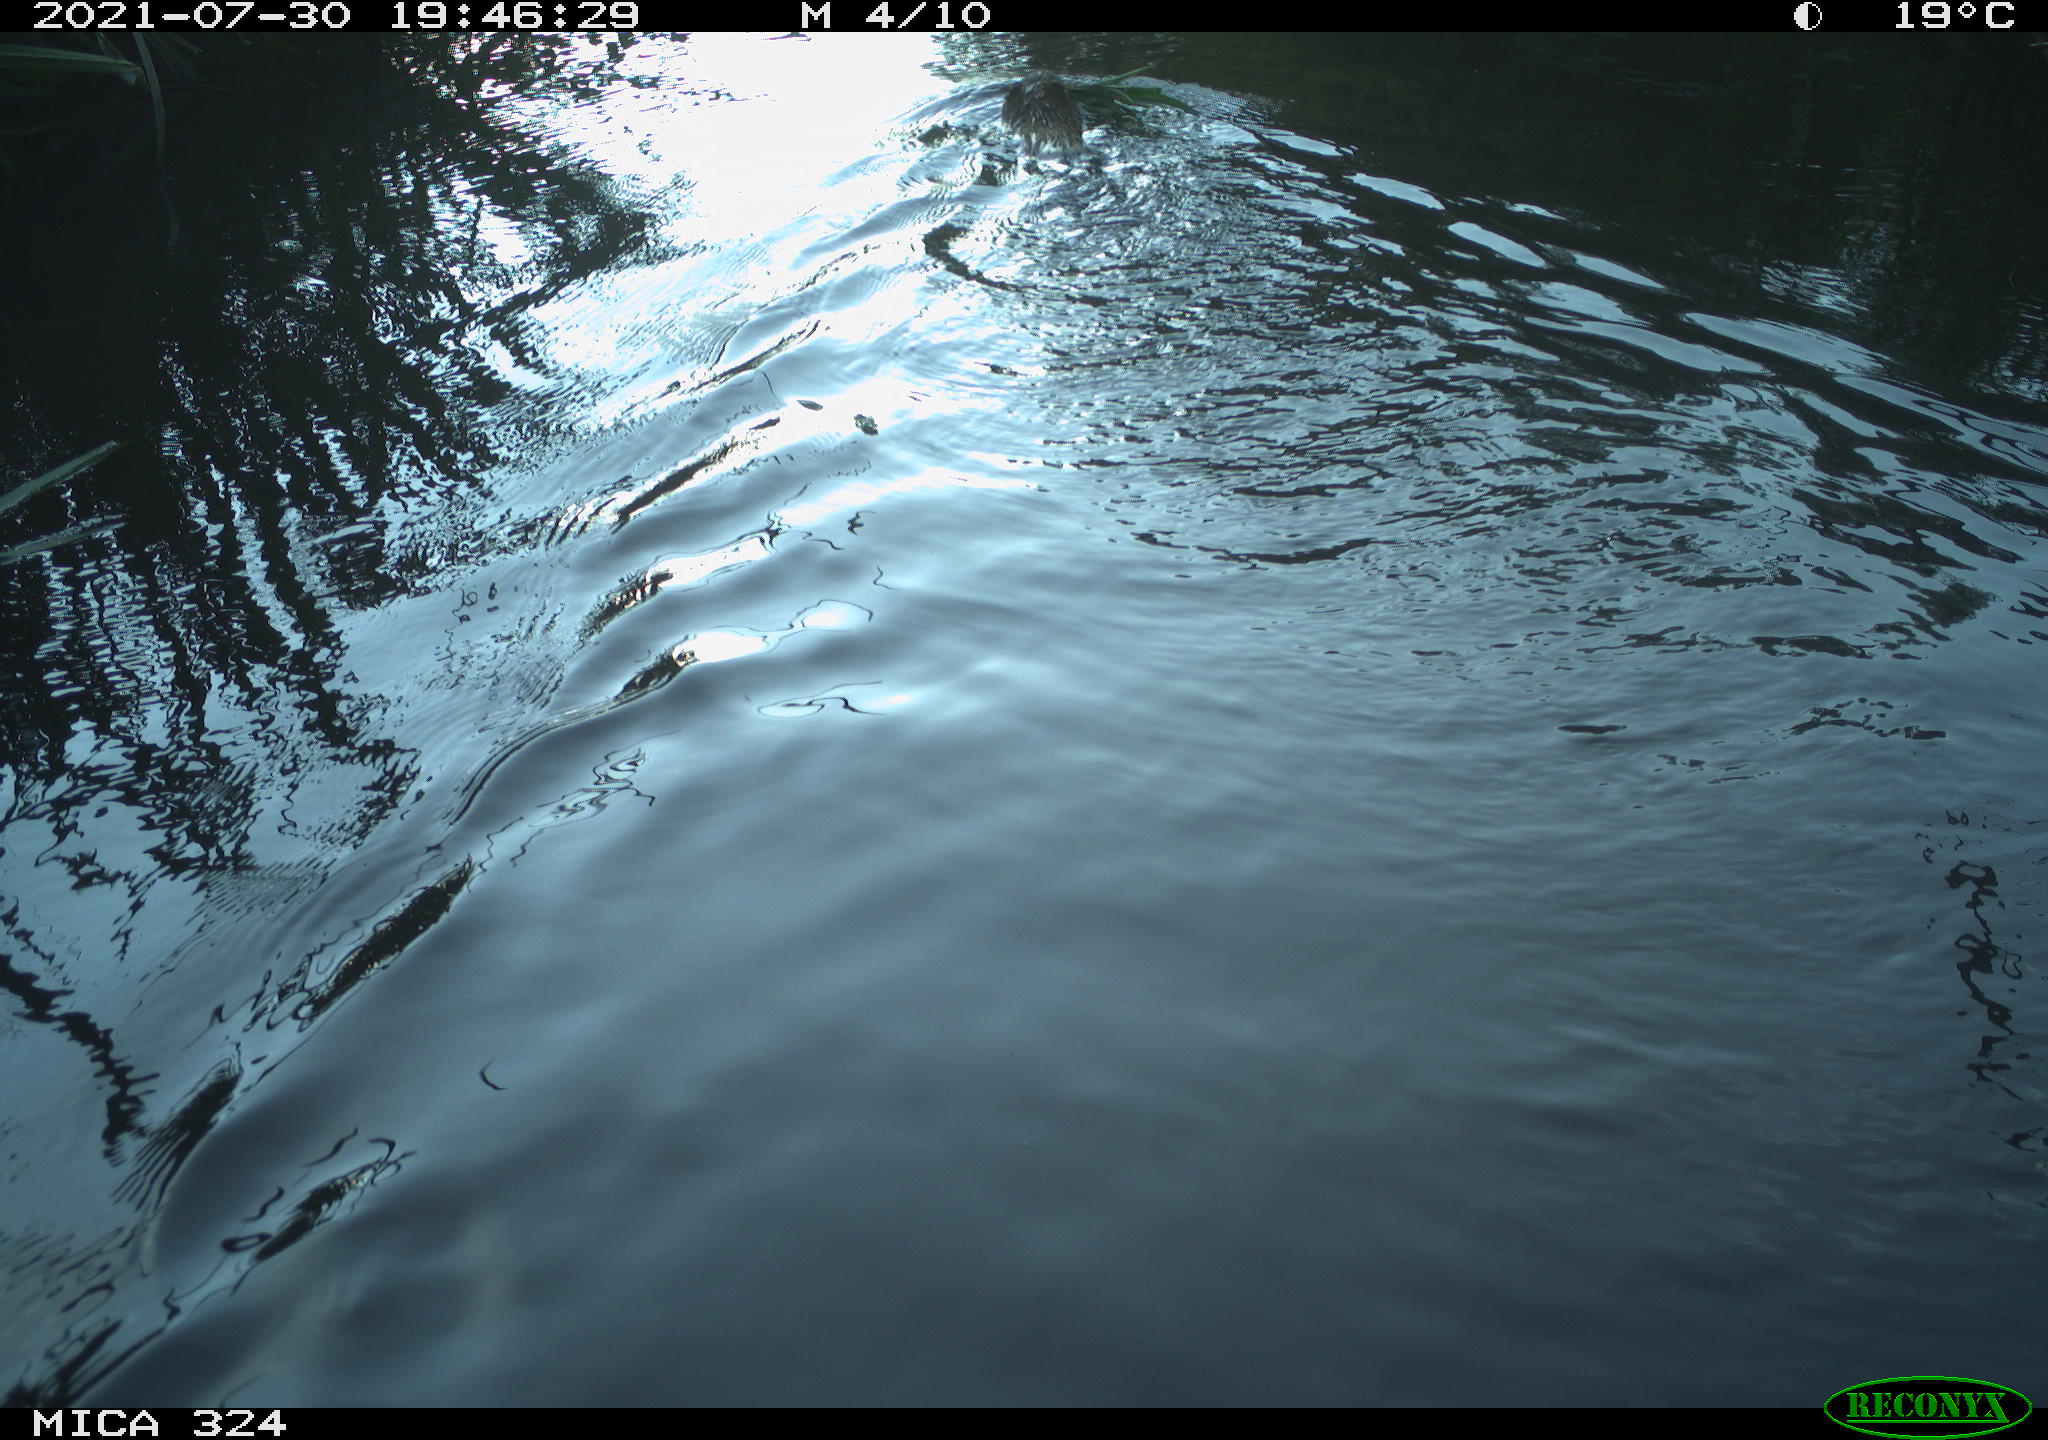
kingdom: Animalia
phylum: Chordata
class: Mammalia
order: Rodentia
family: Cricetidae
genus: Ondatra
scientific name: Ondatra zibethicus
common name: Muskrat
